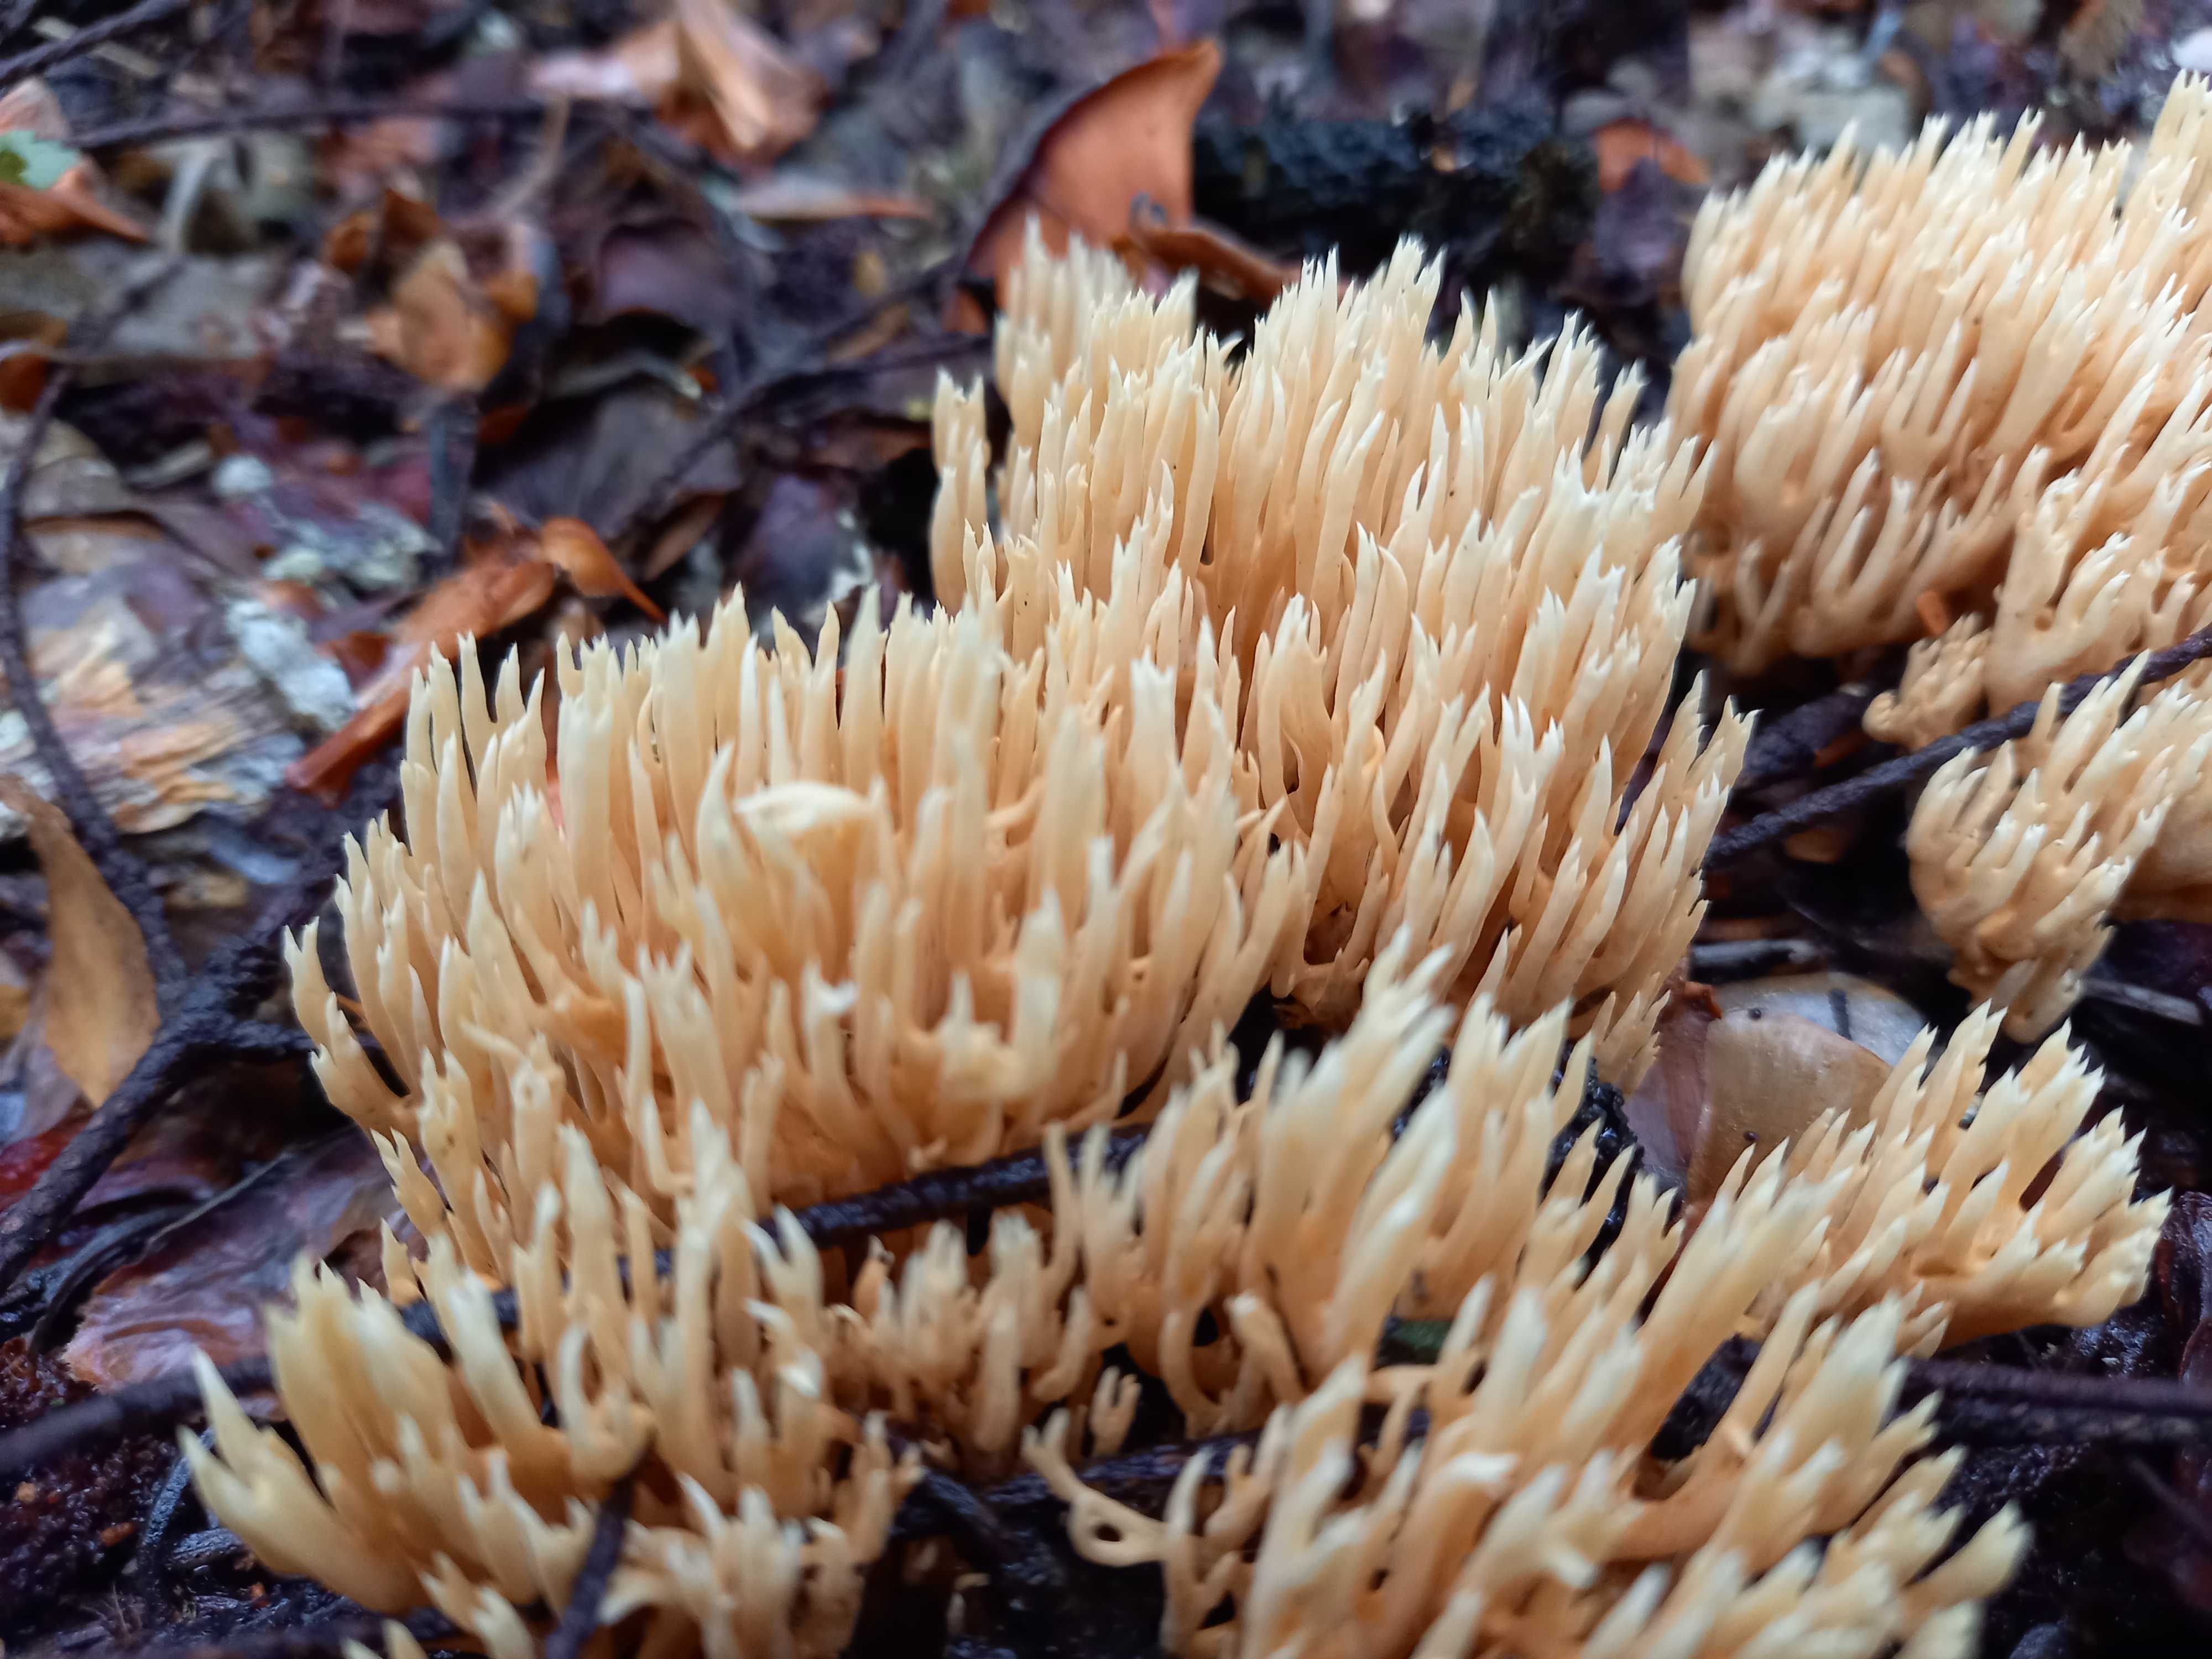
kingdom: Fungi
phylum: Basidiomycota
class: Agaricomycetes
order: Gomphales
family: Gomphaceae
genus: Phaeoclavulina
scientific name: Phaeoclavulina eumorpha
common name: gran-koralsvamp
